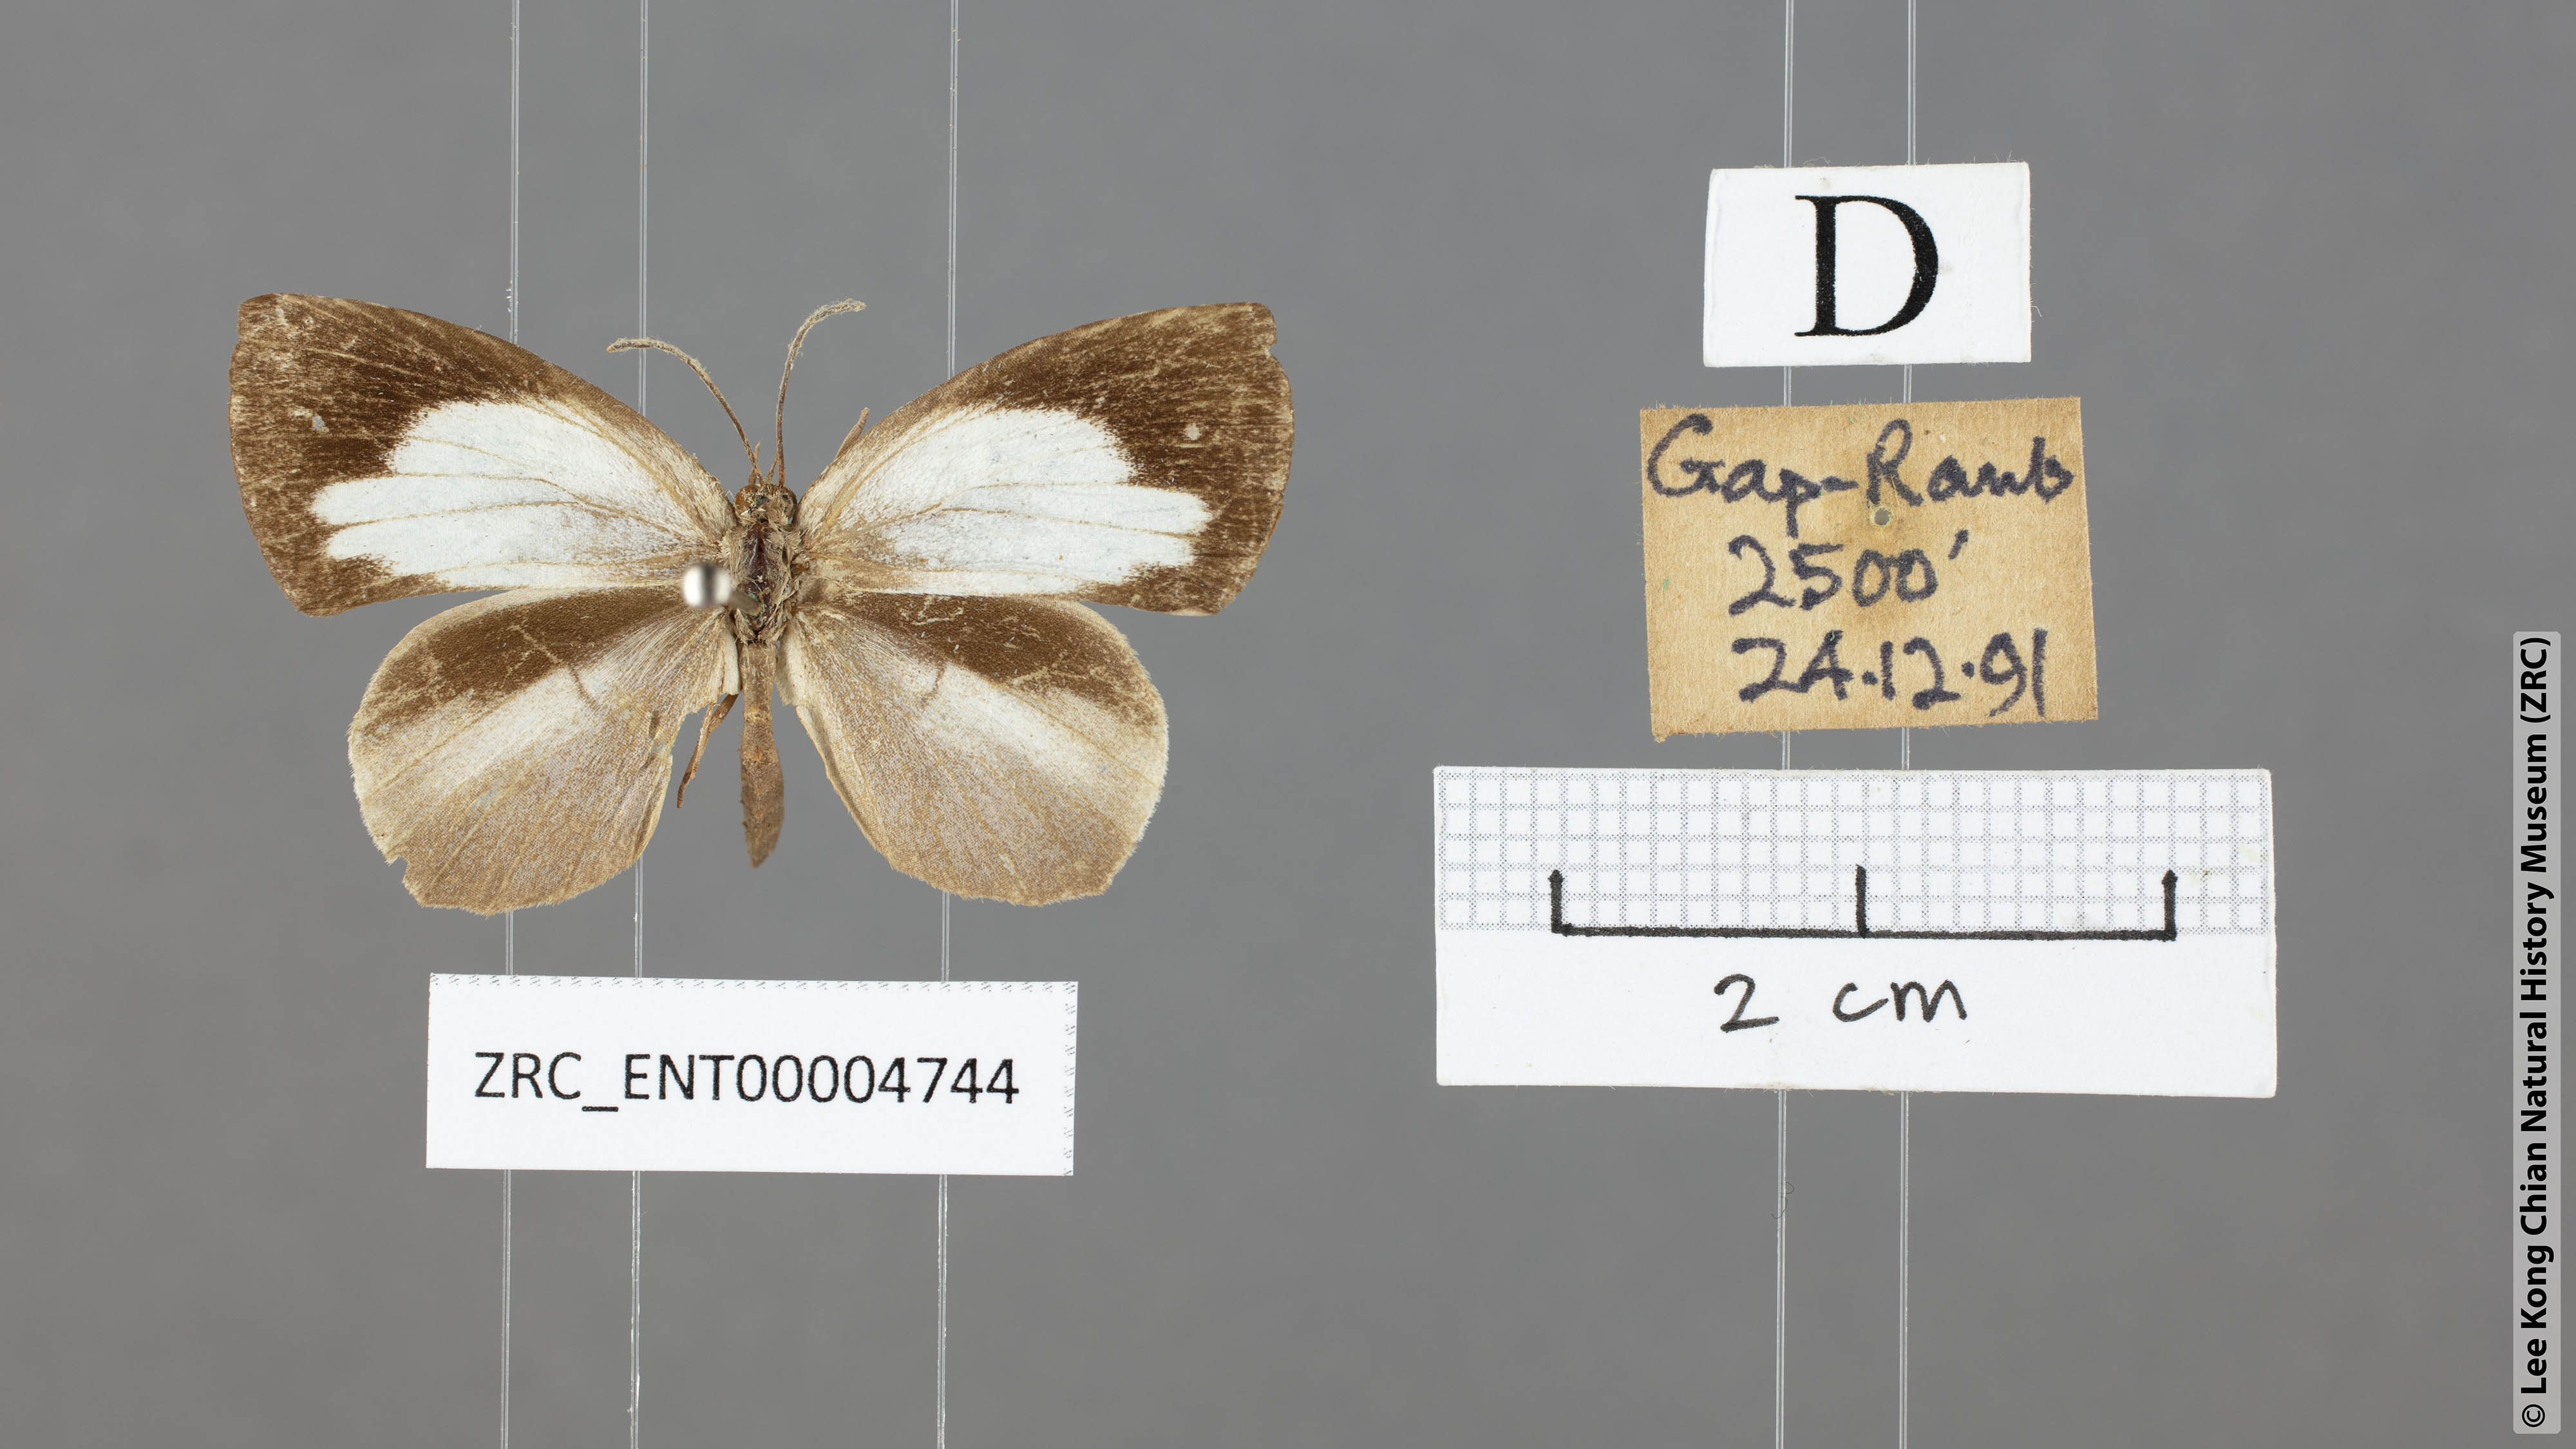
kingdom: Animalia
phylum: Arthropoda
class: Insecta
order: Lepidoptera
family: Lycaenidae
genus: Miletus
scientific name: Miletus symethus
